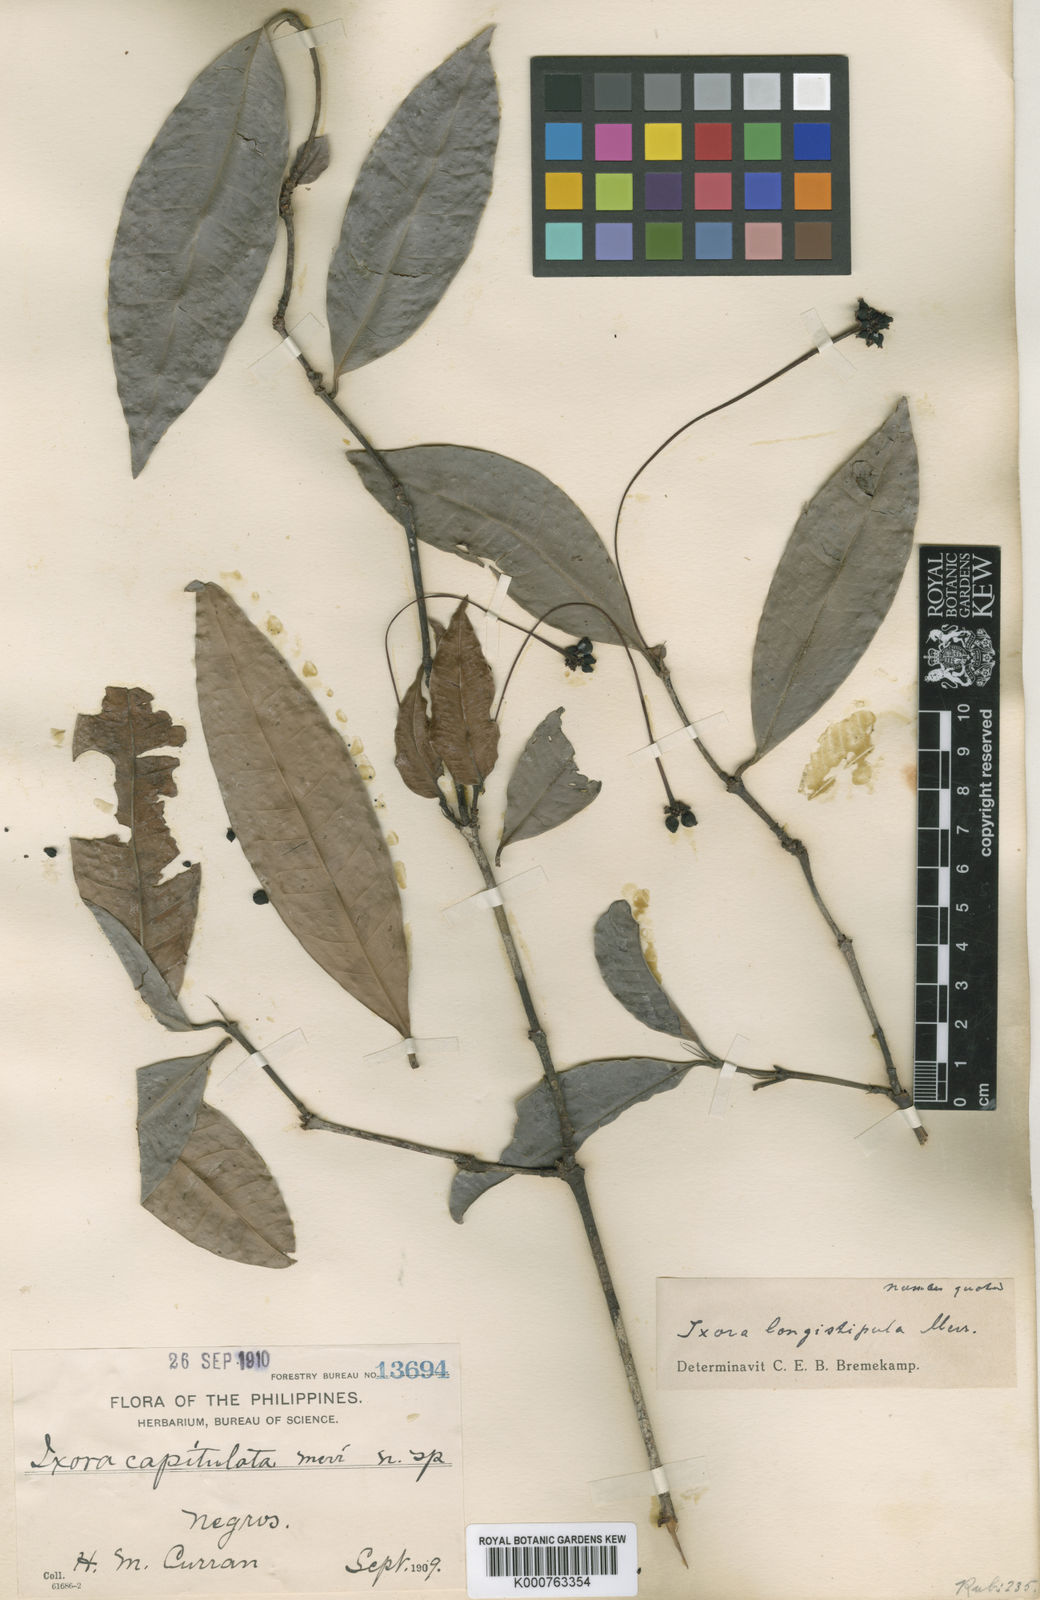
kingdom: Plantae
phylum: Tracheophyta
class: Magnoliopsida
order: Gentianales
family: Rubiaceae
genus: Ixora
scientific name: Ixora longistipula
